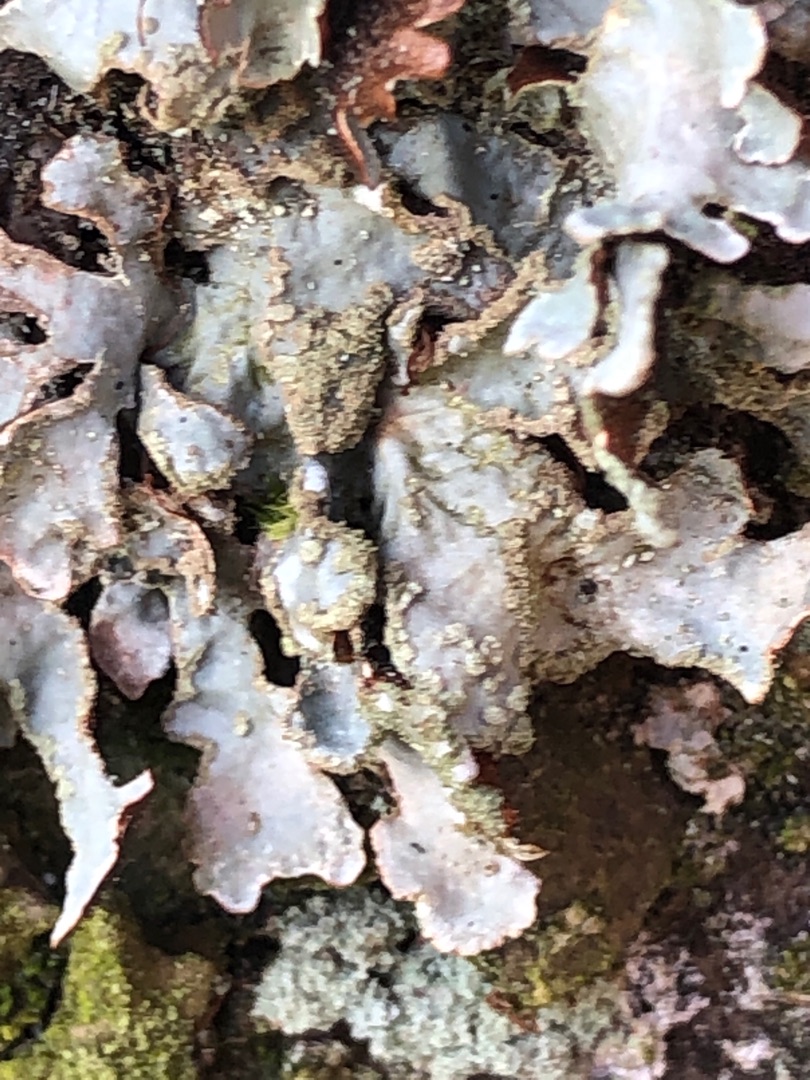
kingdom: Fungi
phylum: Ascomycota
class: Lecanoromycetes
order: Lecanorales
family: Parmeliaceae
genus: Parmelia
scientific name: Parmelia sulcata
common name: Rynket skållav
